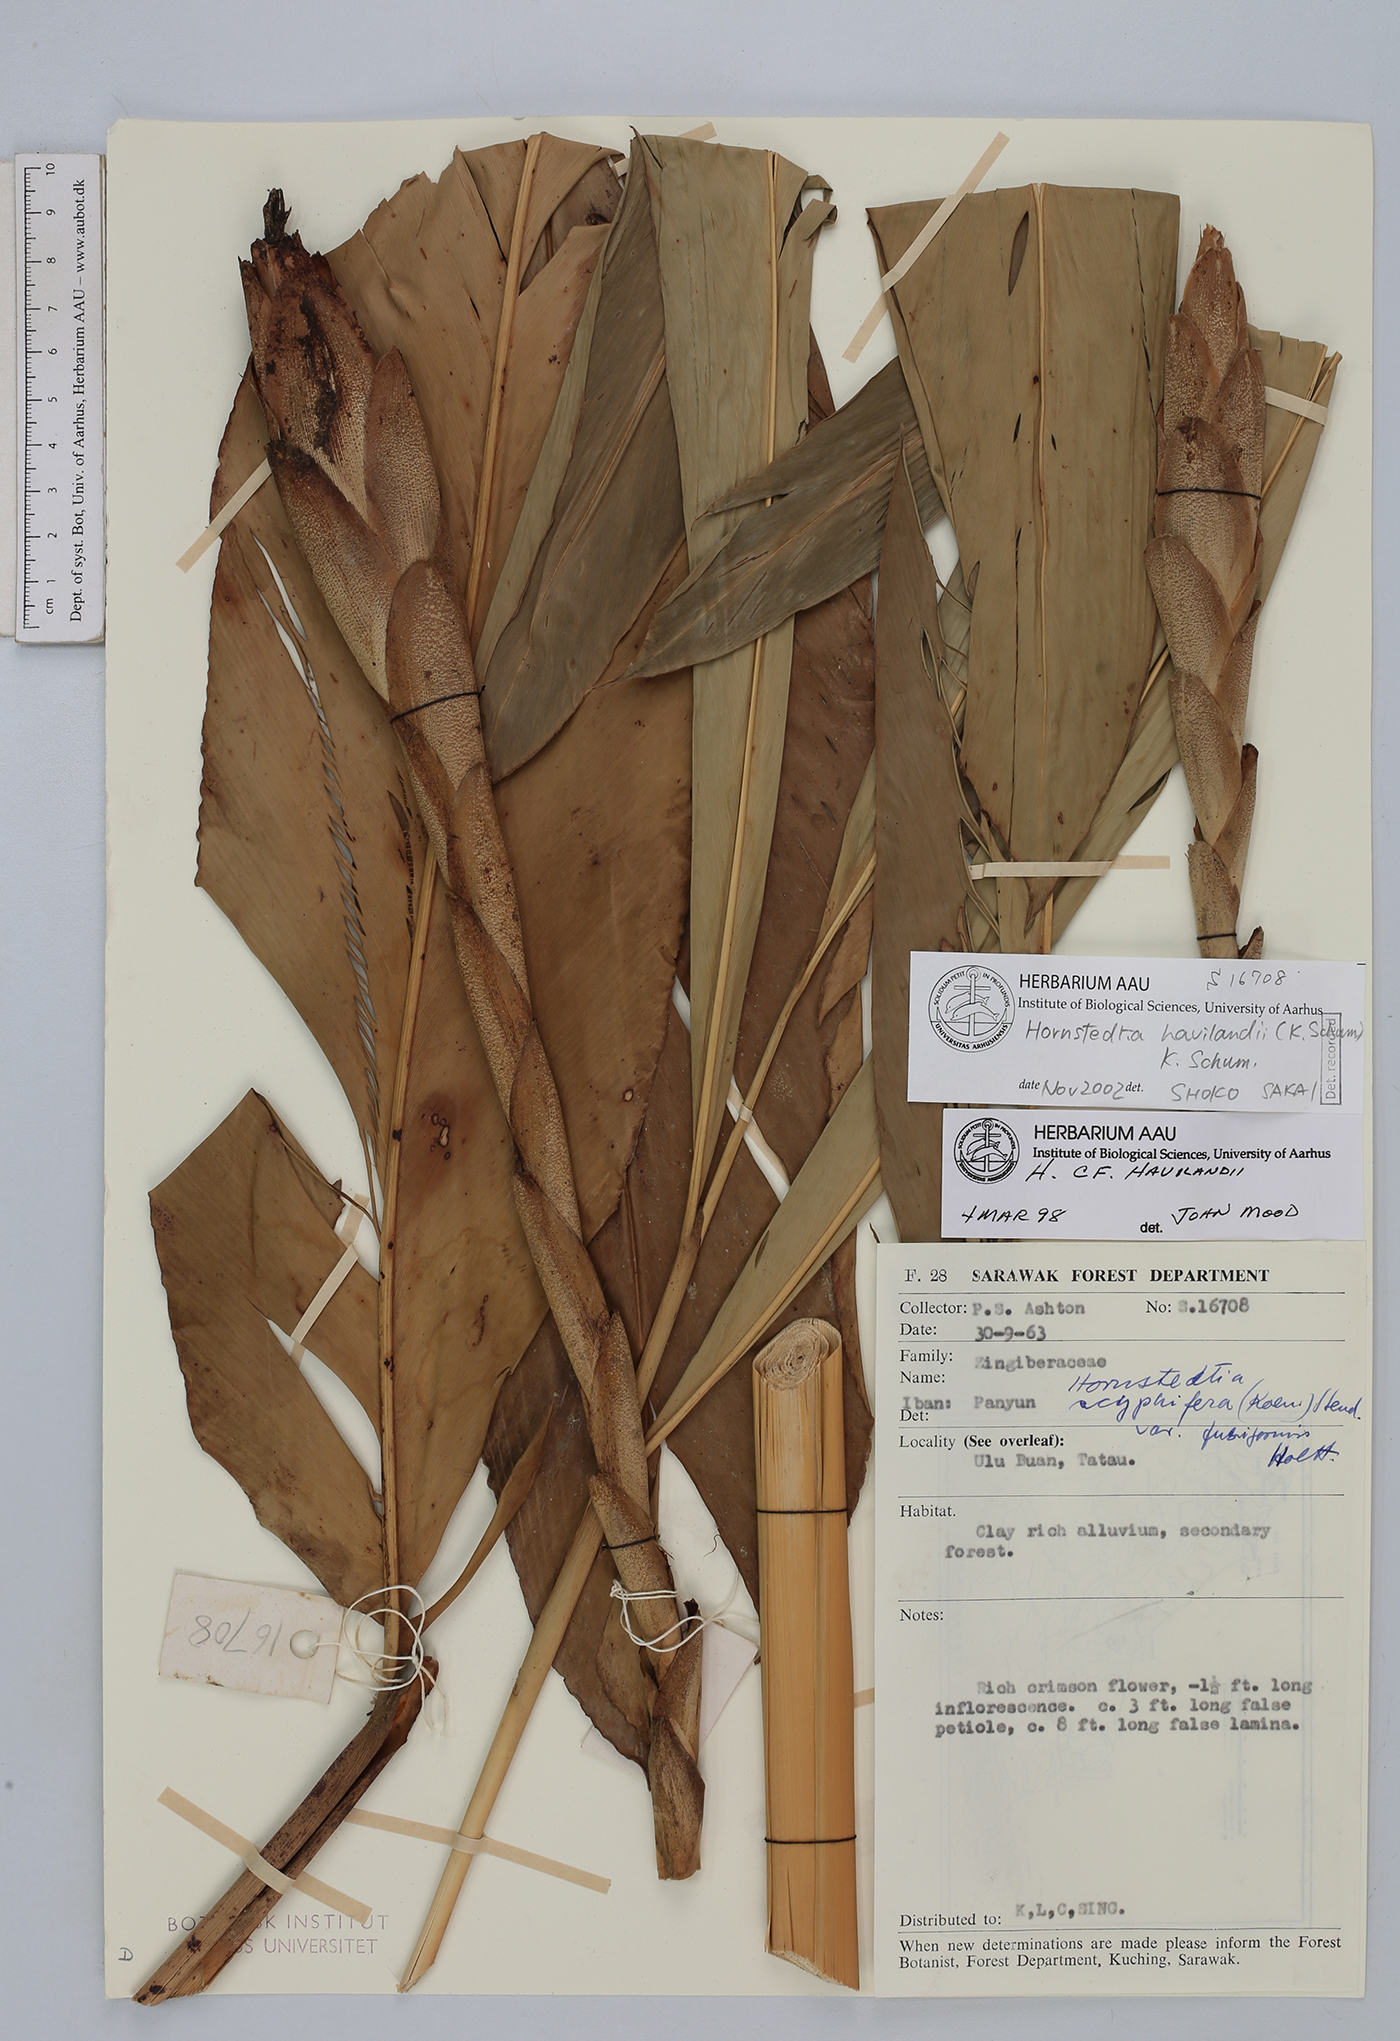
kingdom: Plantae
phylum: Tracheophyta
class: Liliopsida
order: Zingiberales
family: Zingiberaceae
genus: Hornstedtia
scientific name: Hornstedtia havilandii
